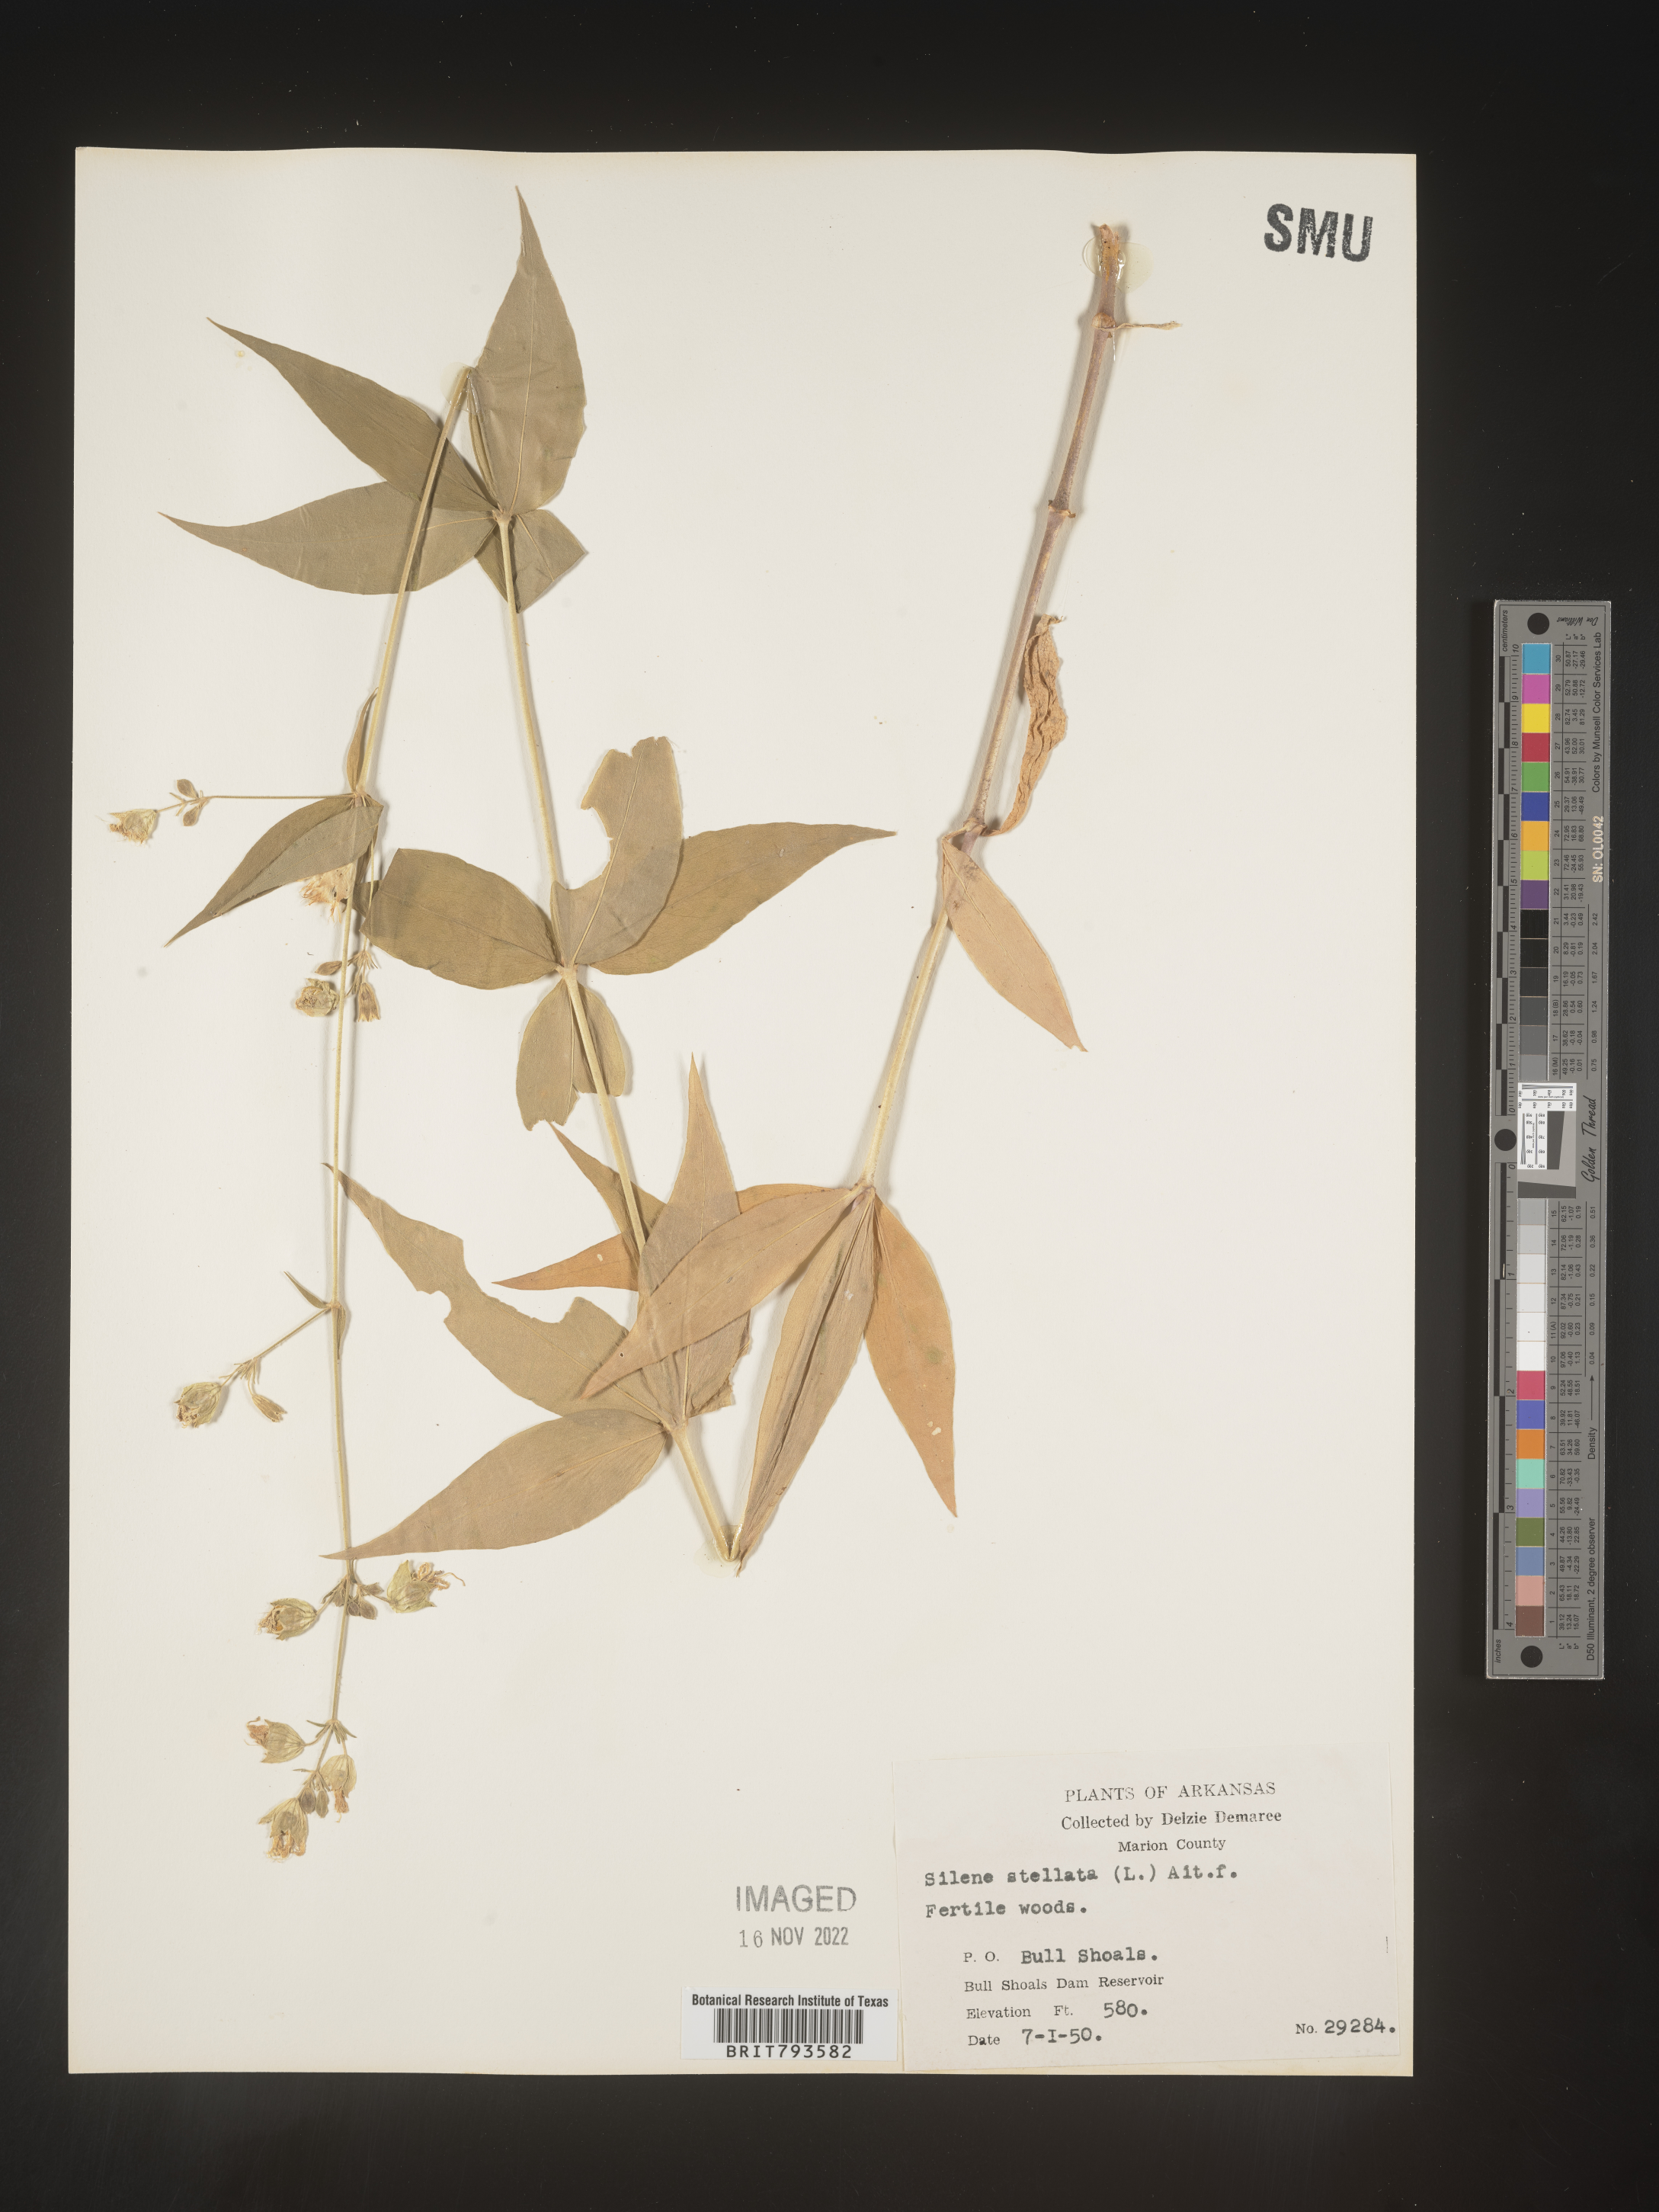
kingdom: Plantae
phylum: Tracheophyta
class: Magnoliopsida
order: Caryophyllales
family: Caryophyllaceae
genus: Silene
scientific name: Silene stellata
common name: Starry campion
